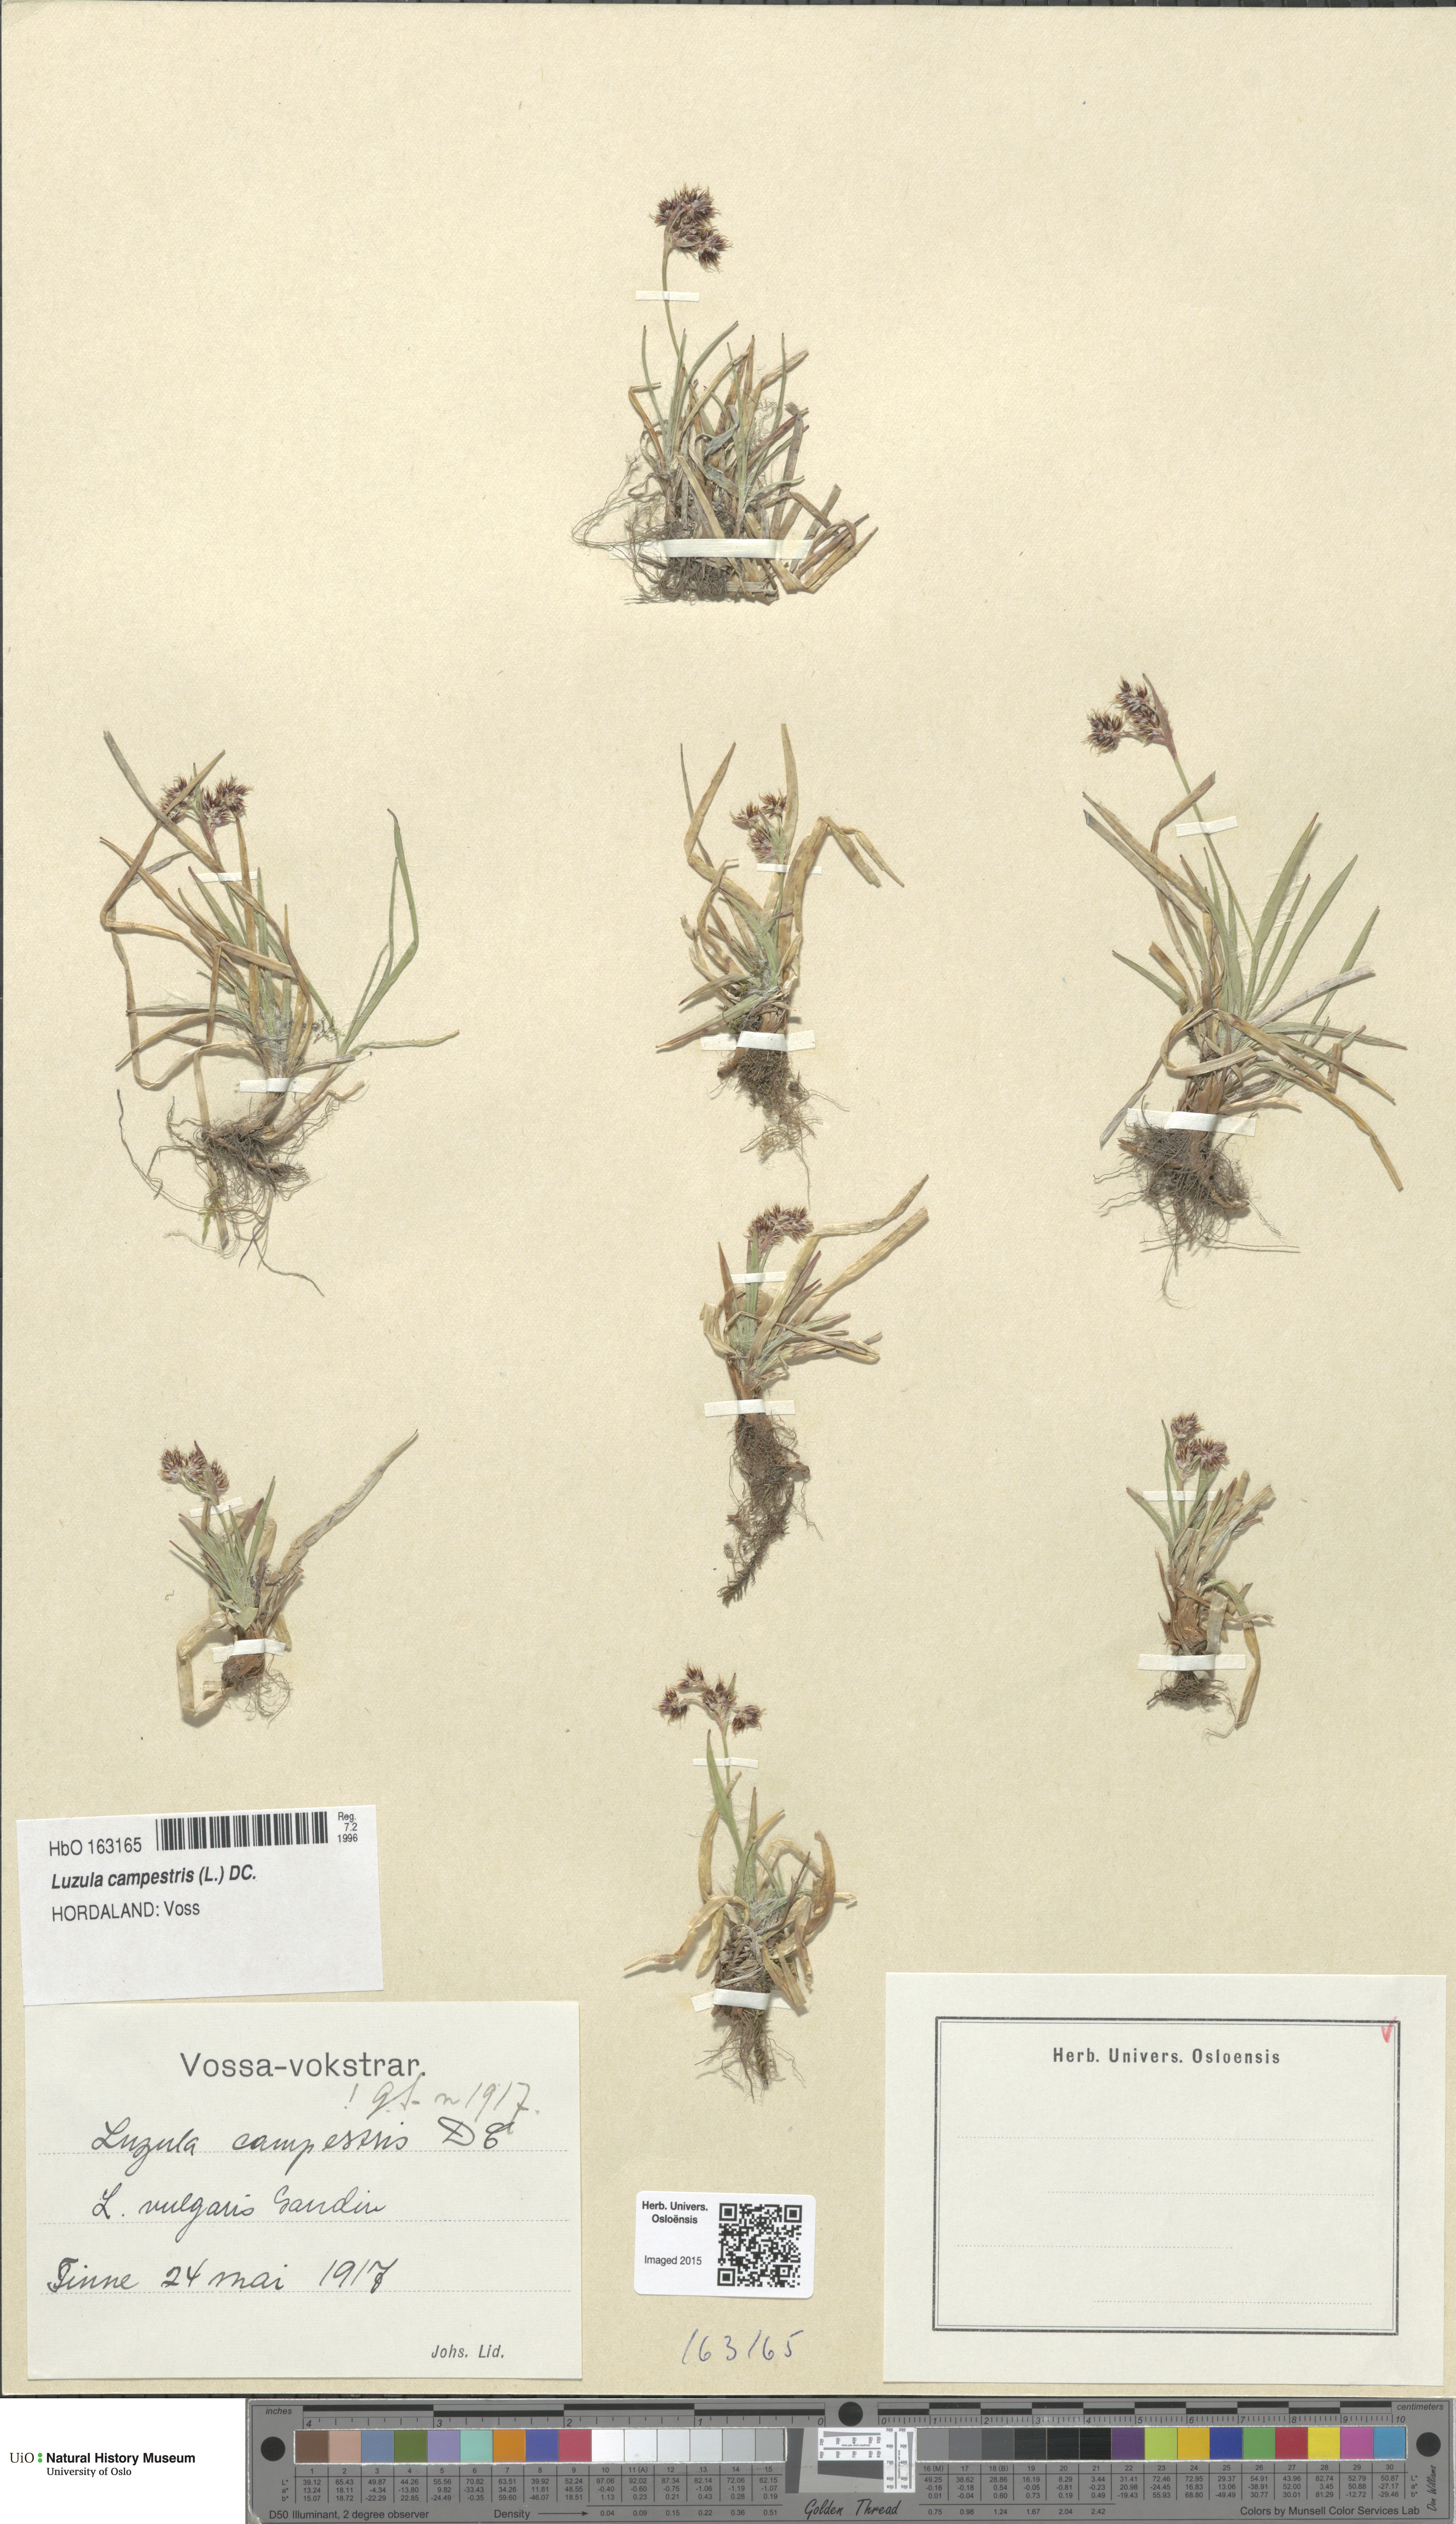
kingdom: Plantae
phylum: Tracheophyta
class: Liliopsida
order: Poales
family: Juncaceae
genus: Luzula
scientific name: Luzula campestris
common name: Field wood-rush
